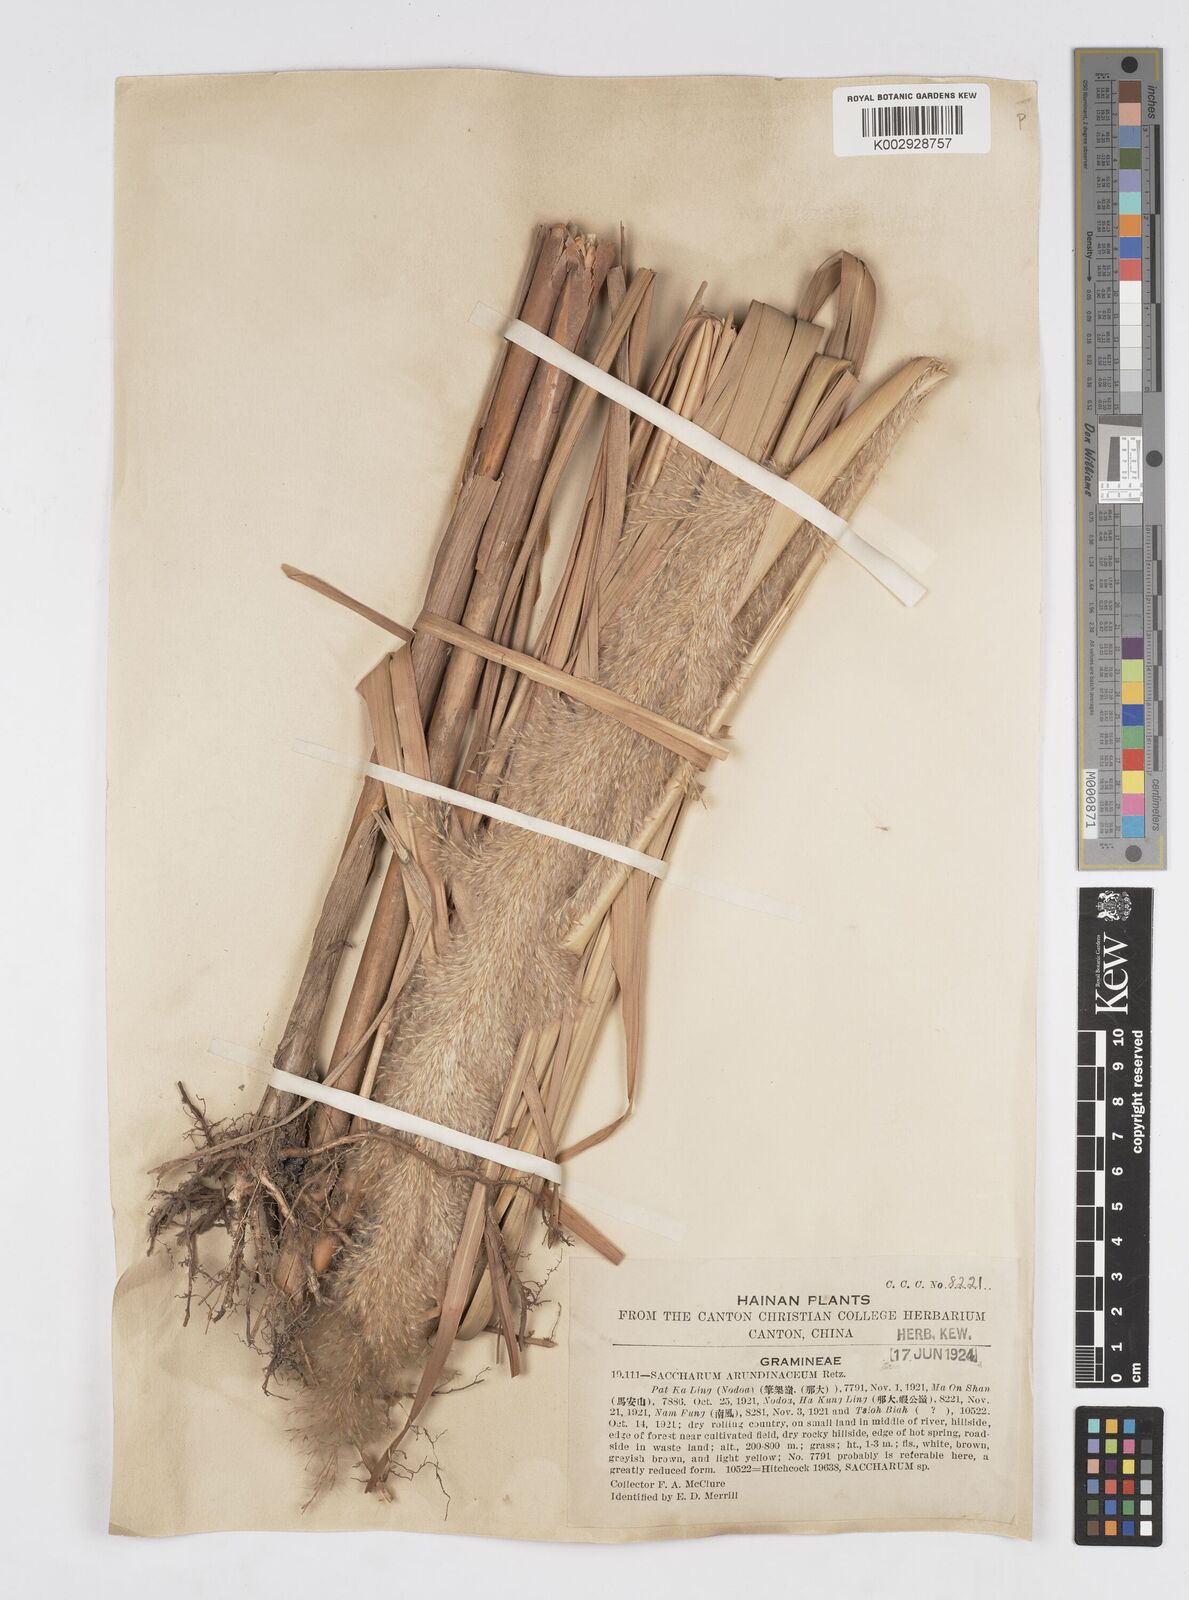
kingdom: Plantae
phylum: Tracheophyta
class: Liliopsida
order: Poales
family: Poaceae
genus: Tripidium
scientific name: Tripidium arundinaceum
